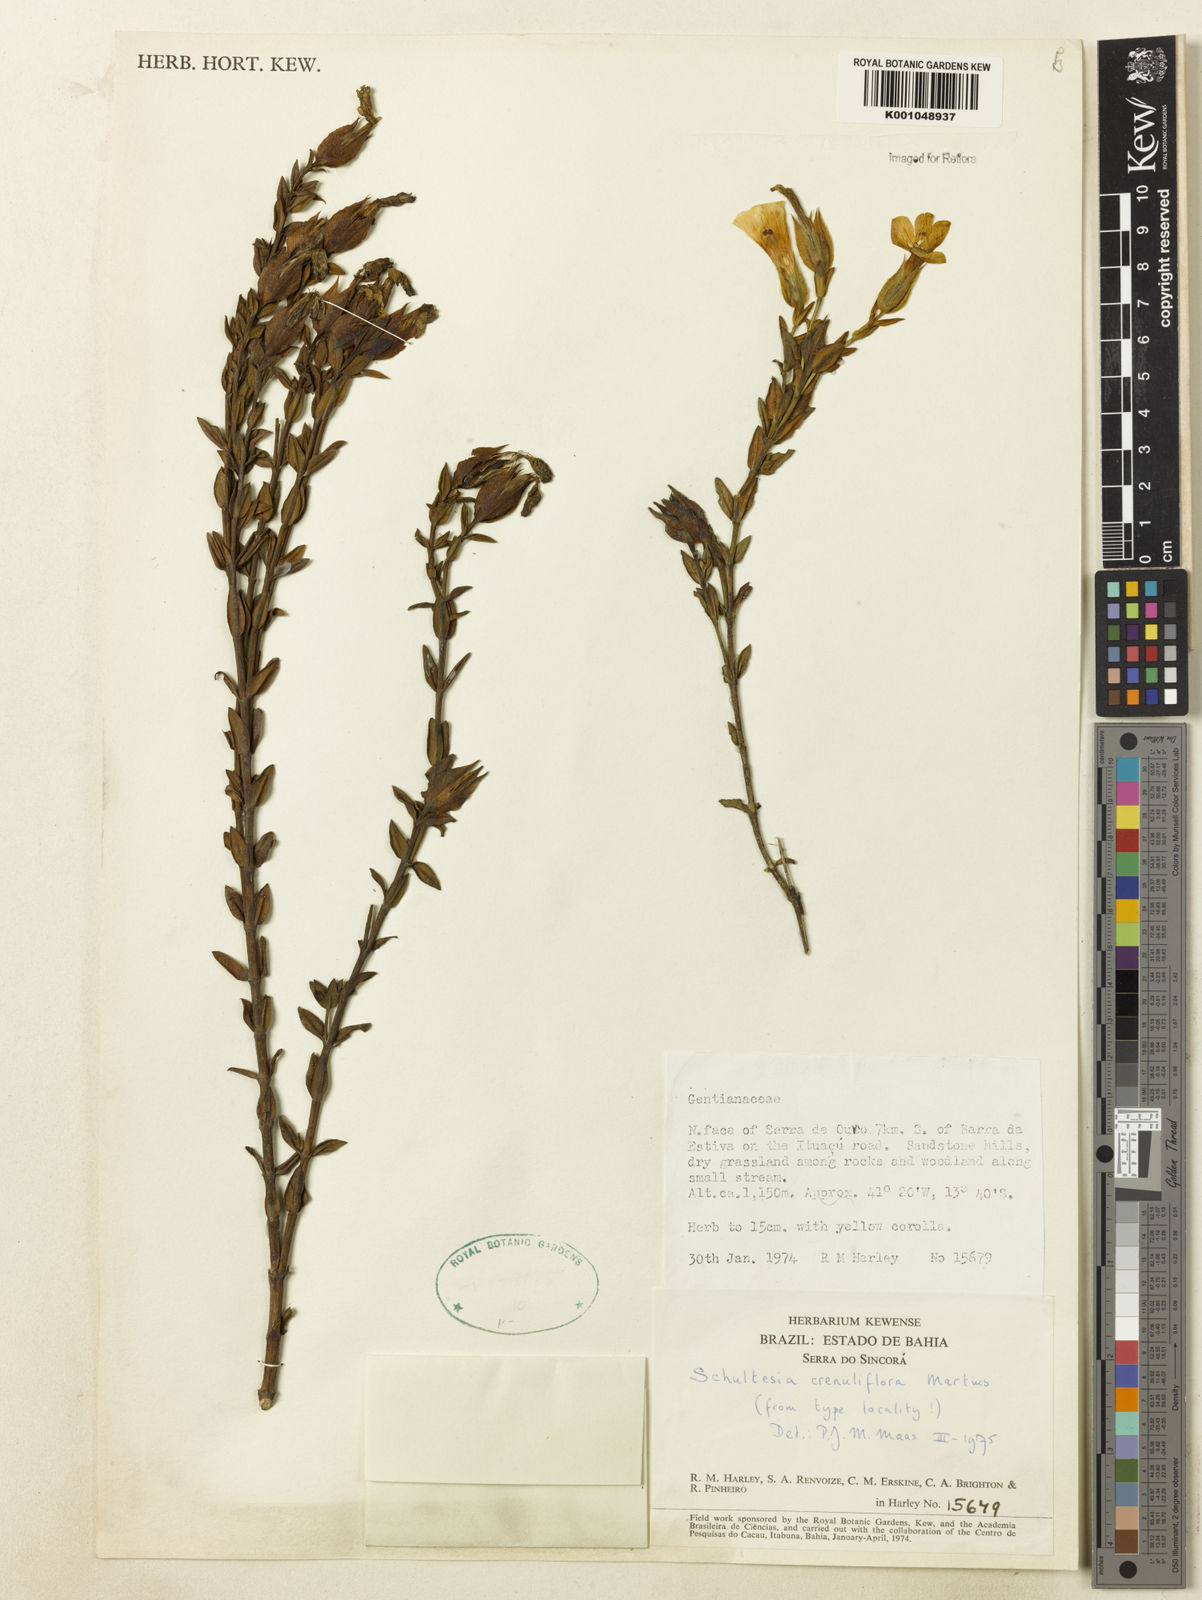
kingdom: Plantae
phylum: Tracheophyta
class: Magnoliopsida
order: Gentianales
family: Gentianaceae
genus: Schultesia
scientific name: Schultesia crenuliflora
